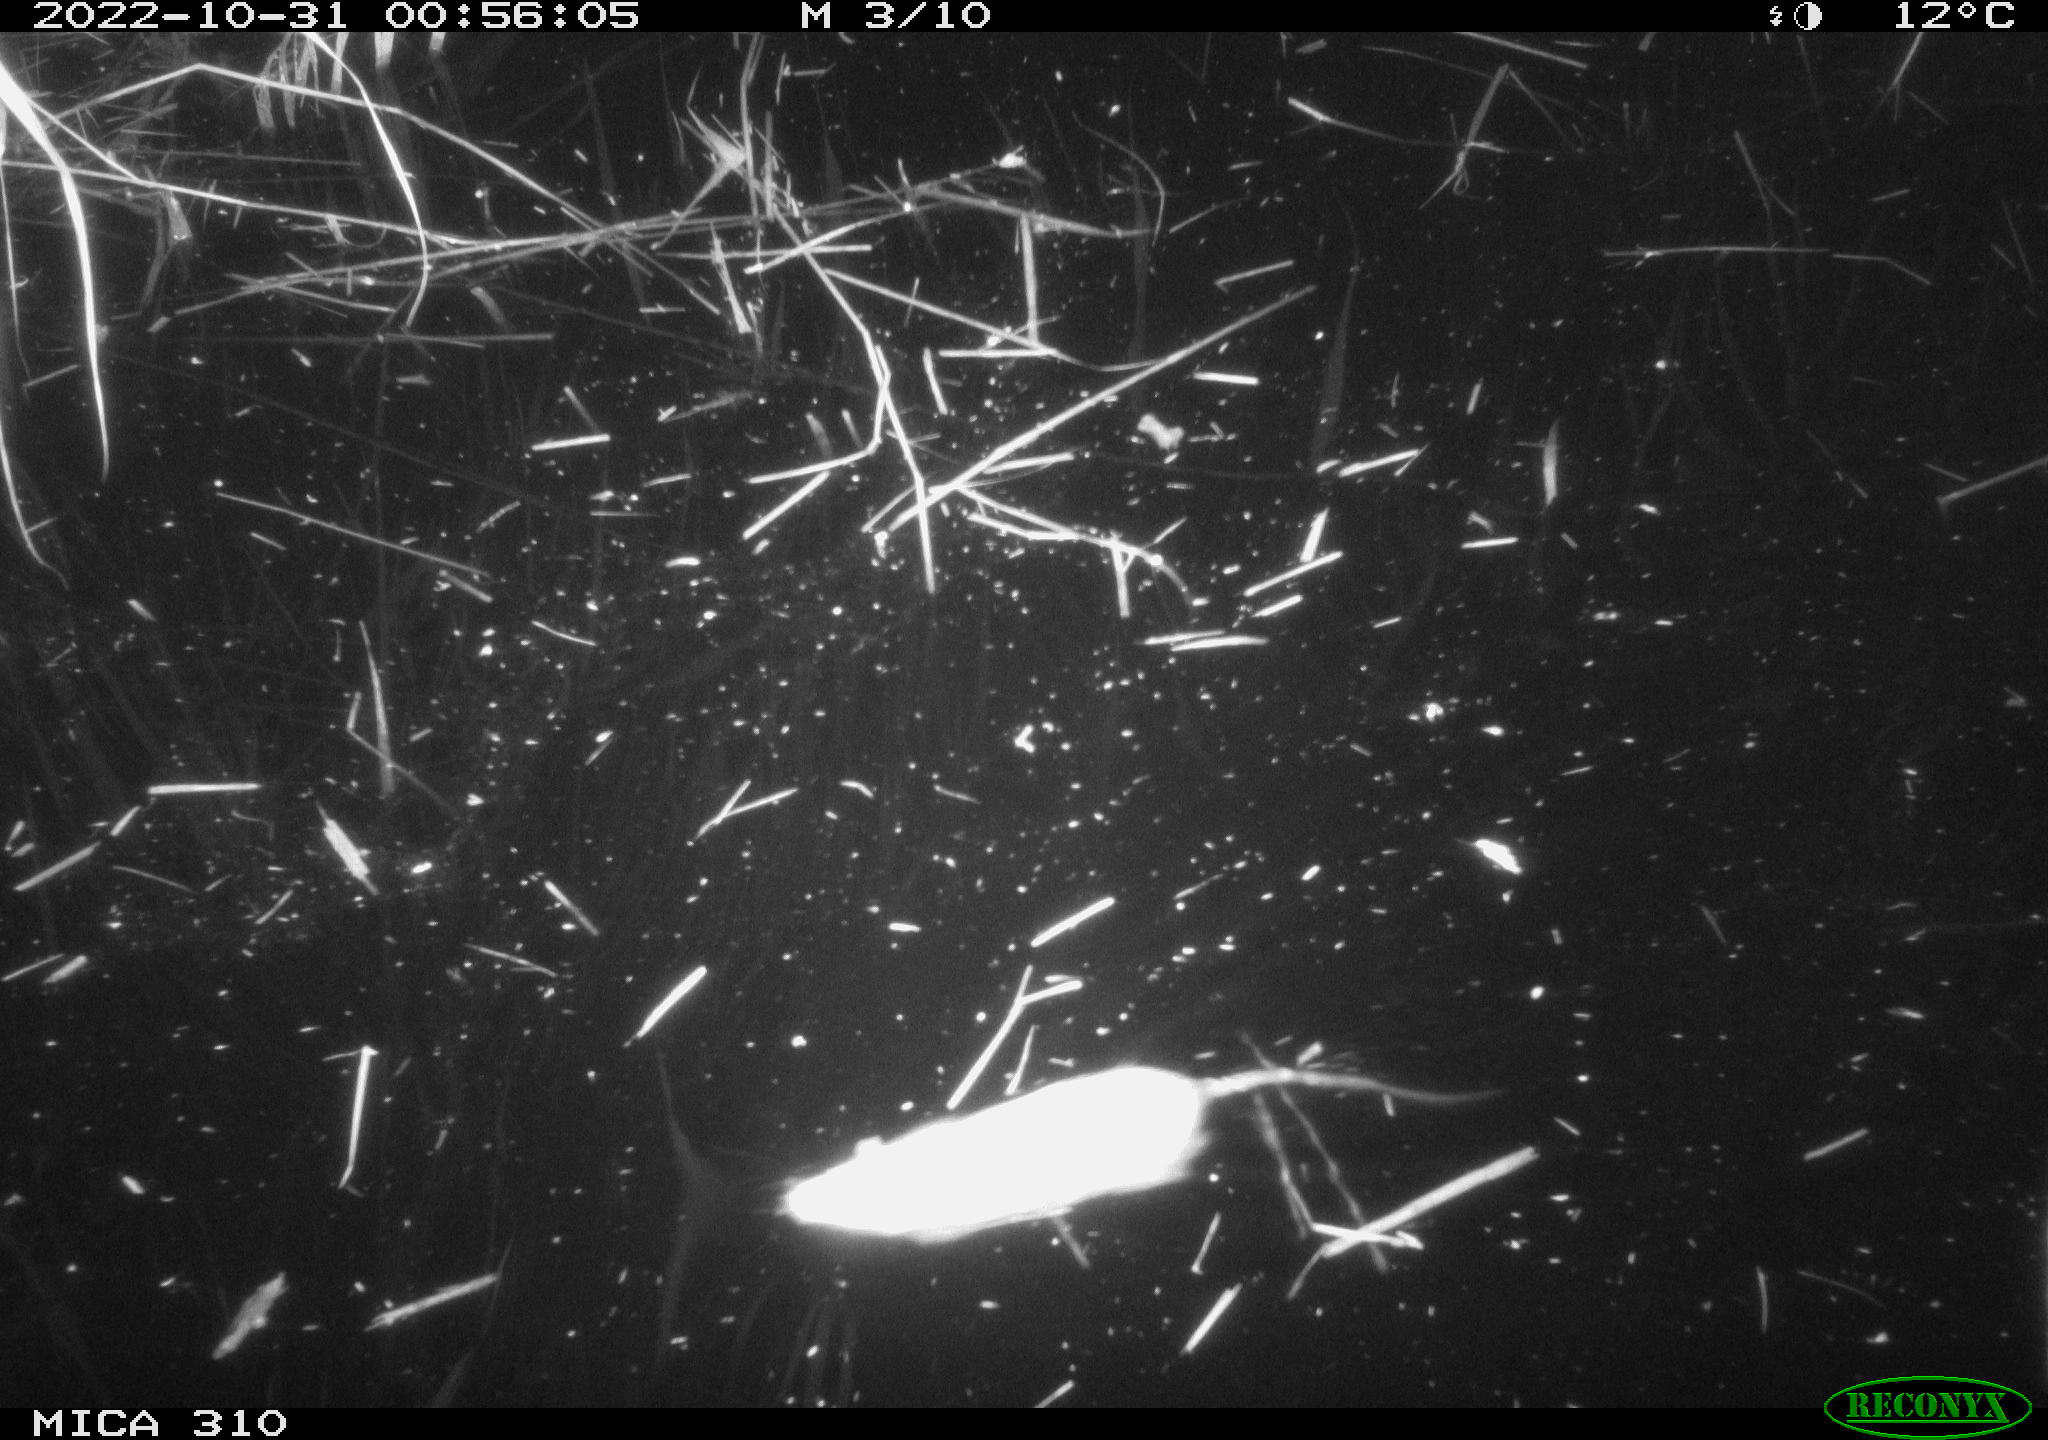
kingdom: Animalia
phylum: Chordata
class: Mammalia
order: Rodentia
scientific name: Rodentia
